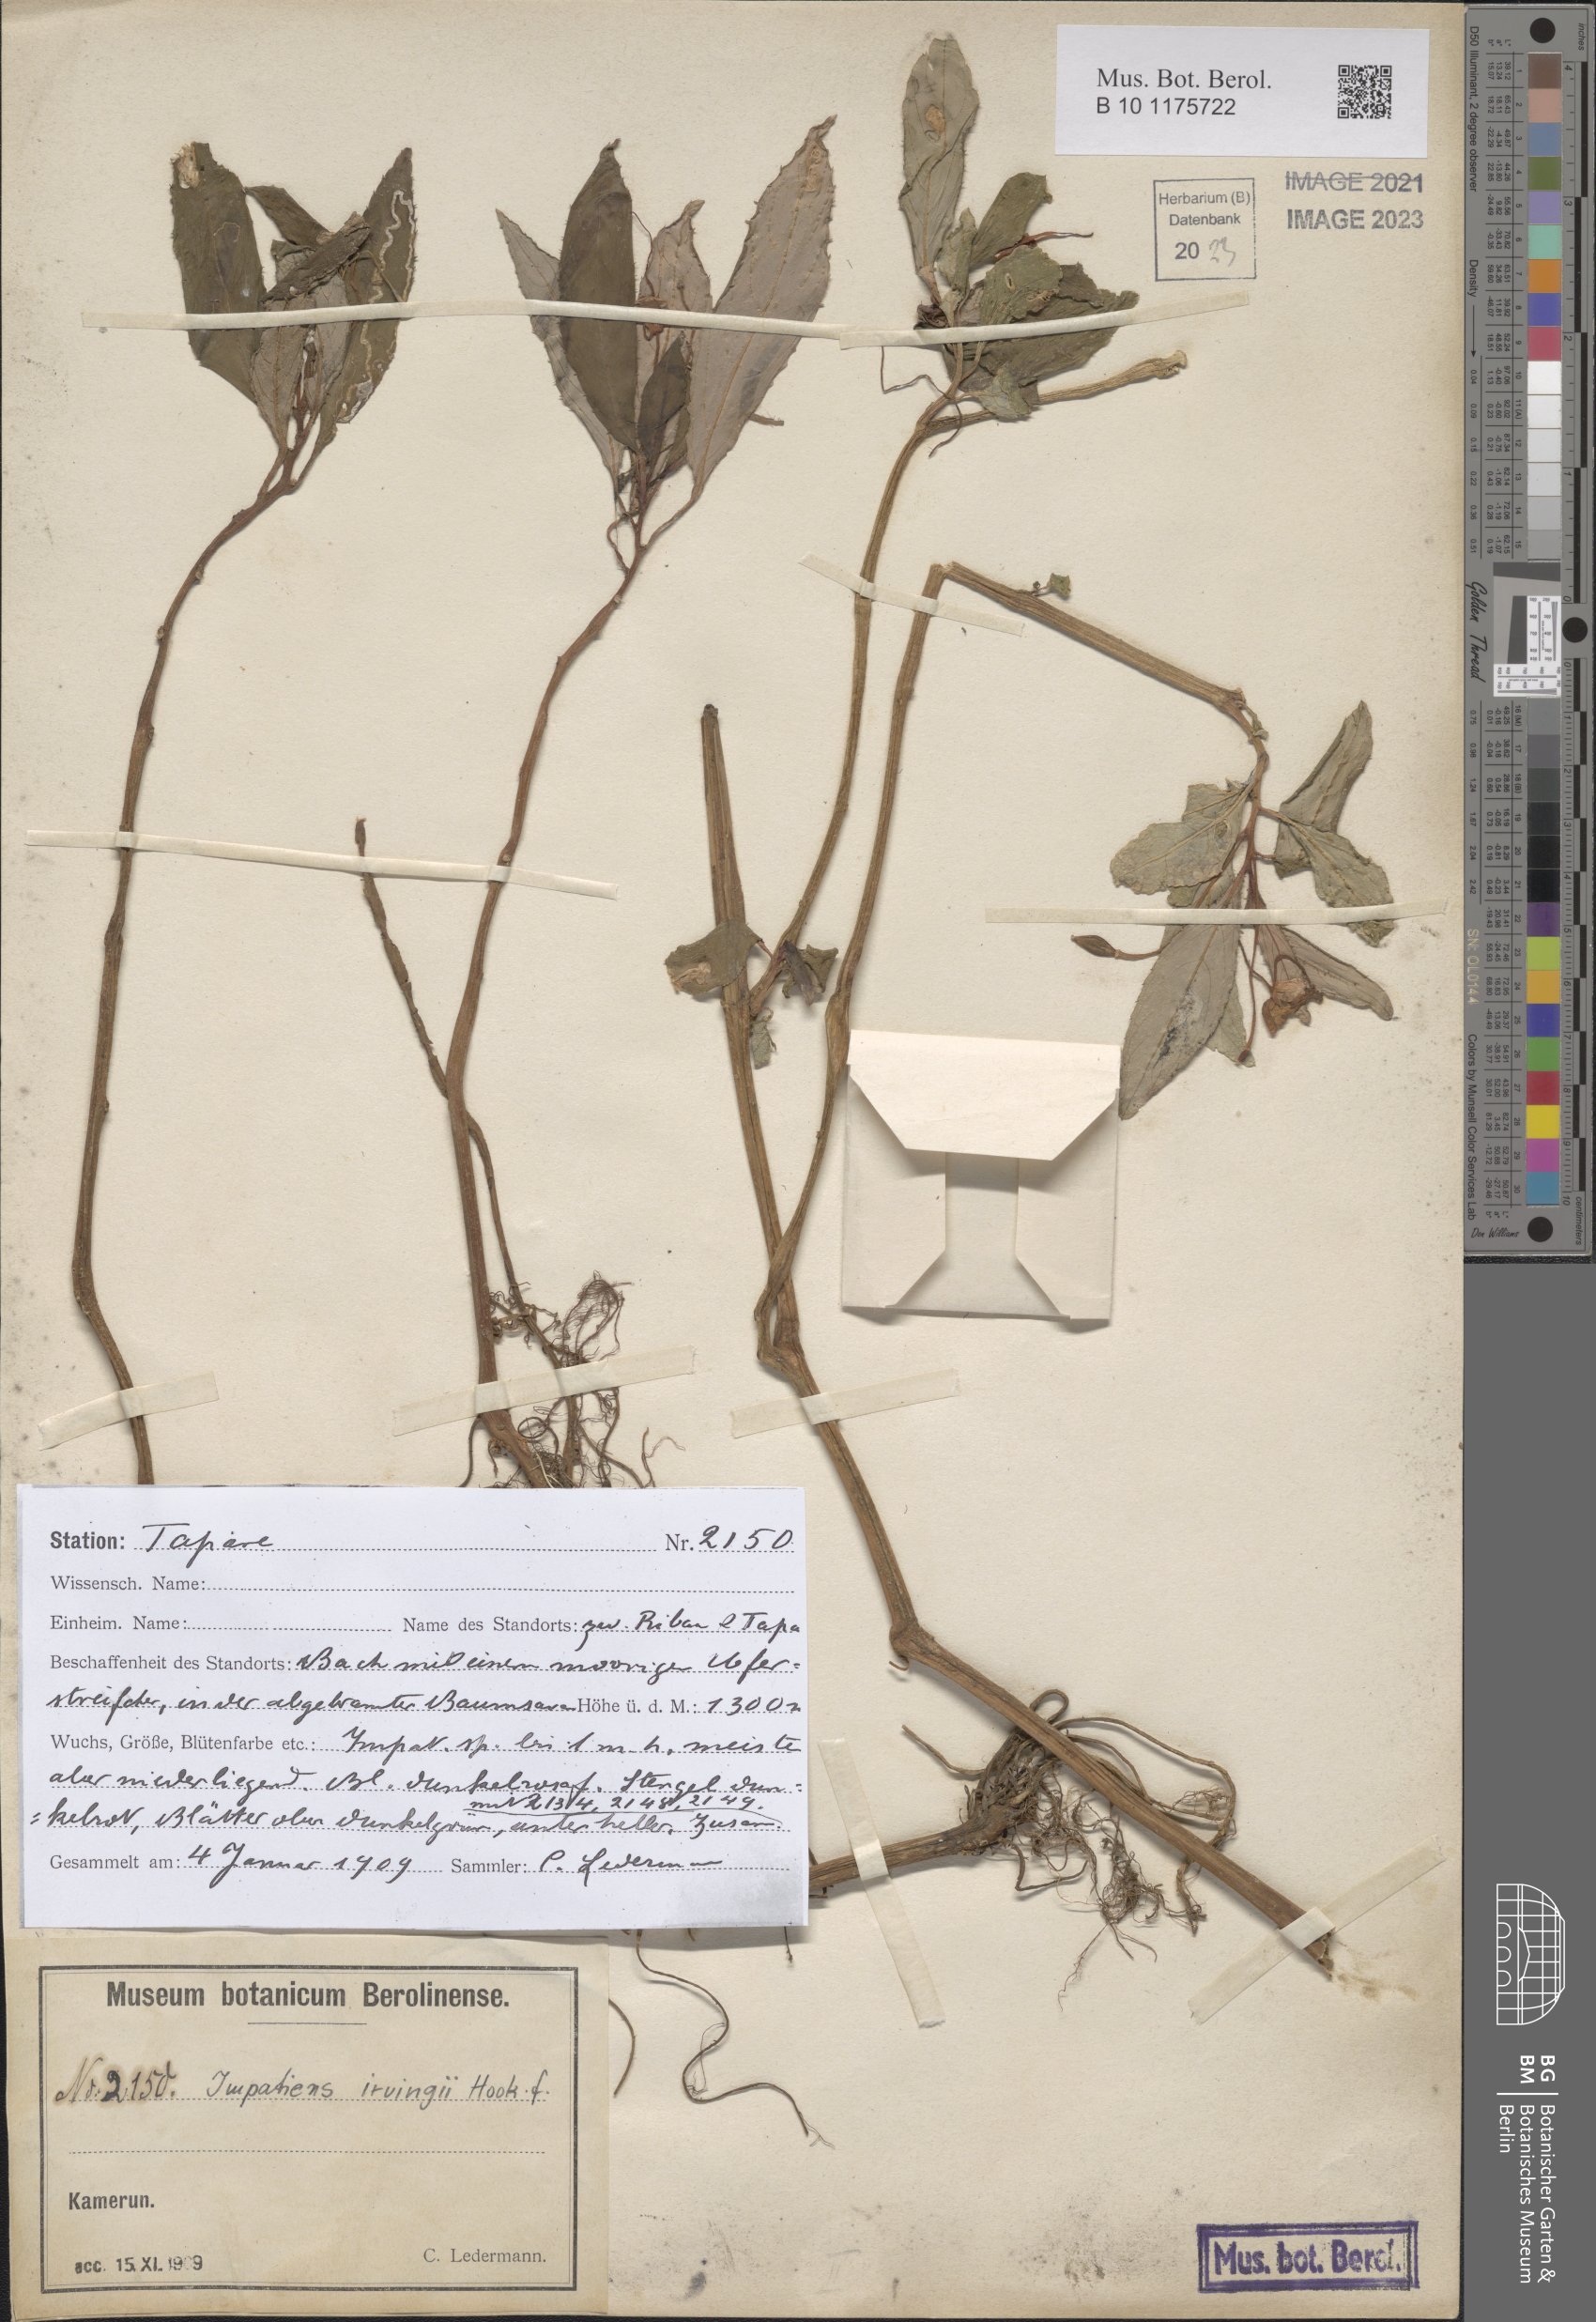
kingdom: Plantae
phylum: Tracheophyta
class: Magnoliopsida
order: Ericales
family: Balsaminaceae
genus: Impatiens
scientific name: Impatiens irvingii
